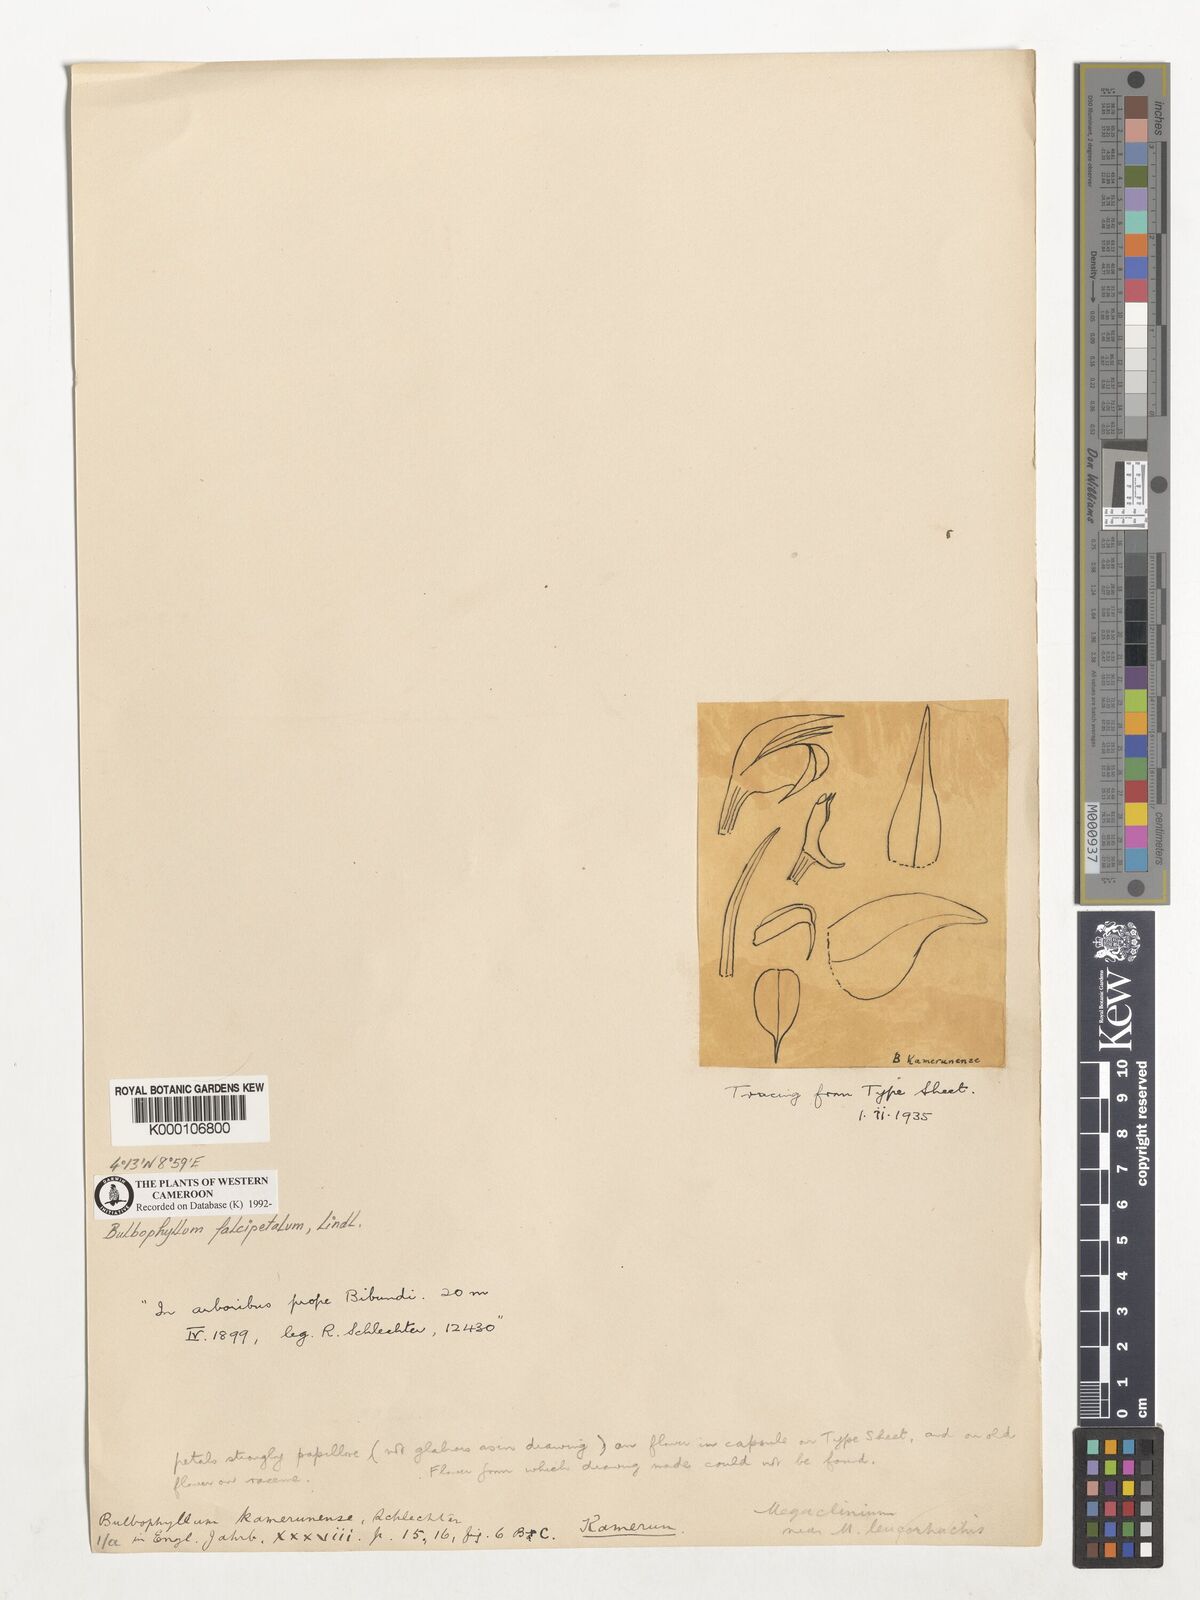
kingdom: Plantae
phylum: Tracheophyta
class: Liliopsida
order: Asparagales
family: Orchidaceae
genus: Bulbophyllum
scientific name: Bulbophyllum imbricatum
